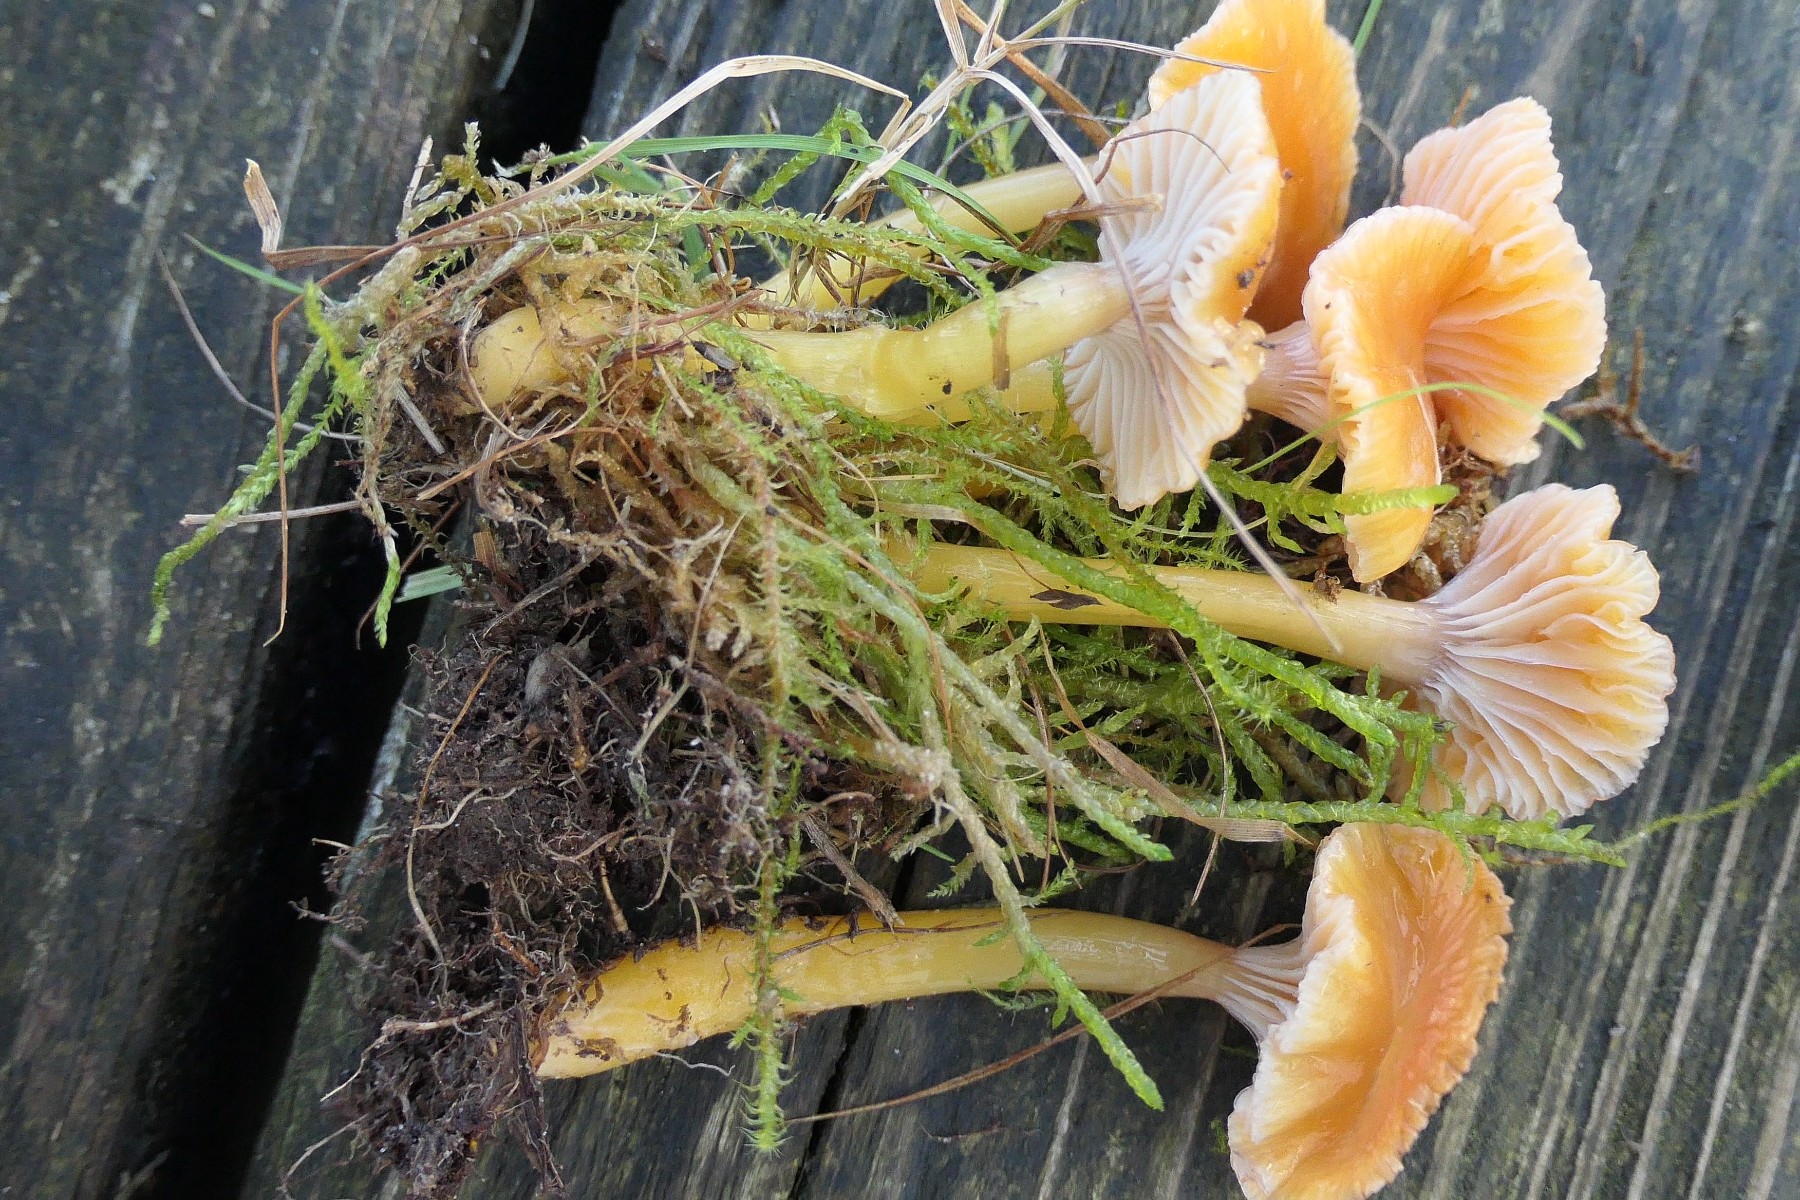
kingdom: Fungi
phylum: Basidiomycota
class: Agaricomycetes
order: Agaricales
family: Hygrophoraceae
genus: Gliophorus
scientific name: Gliophorus laetus
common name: brusk-vokshat
